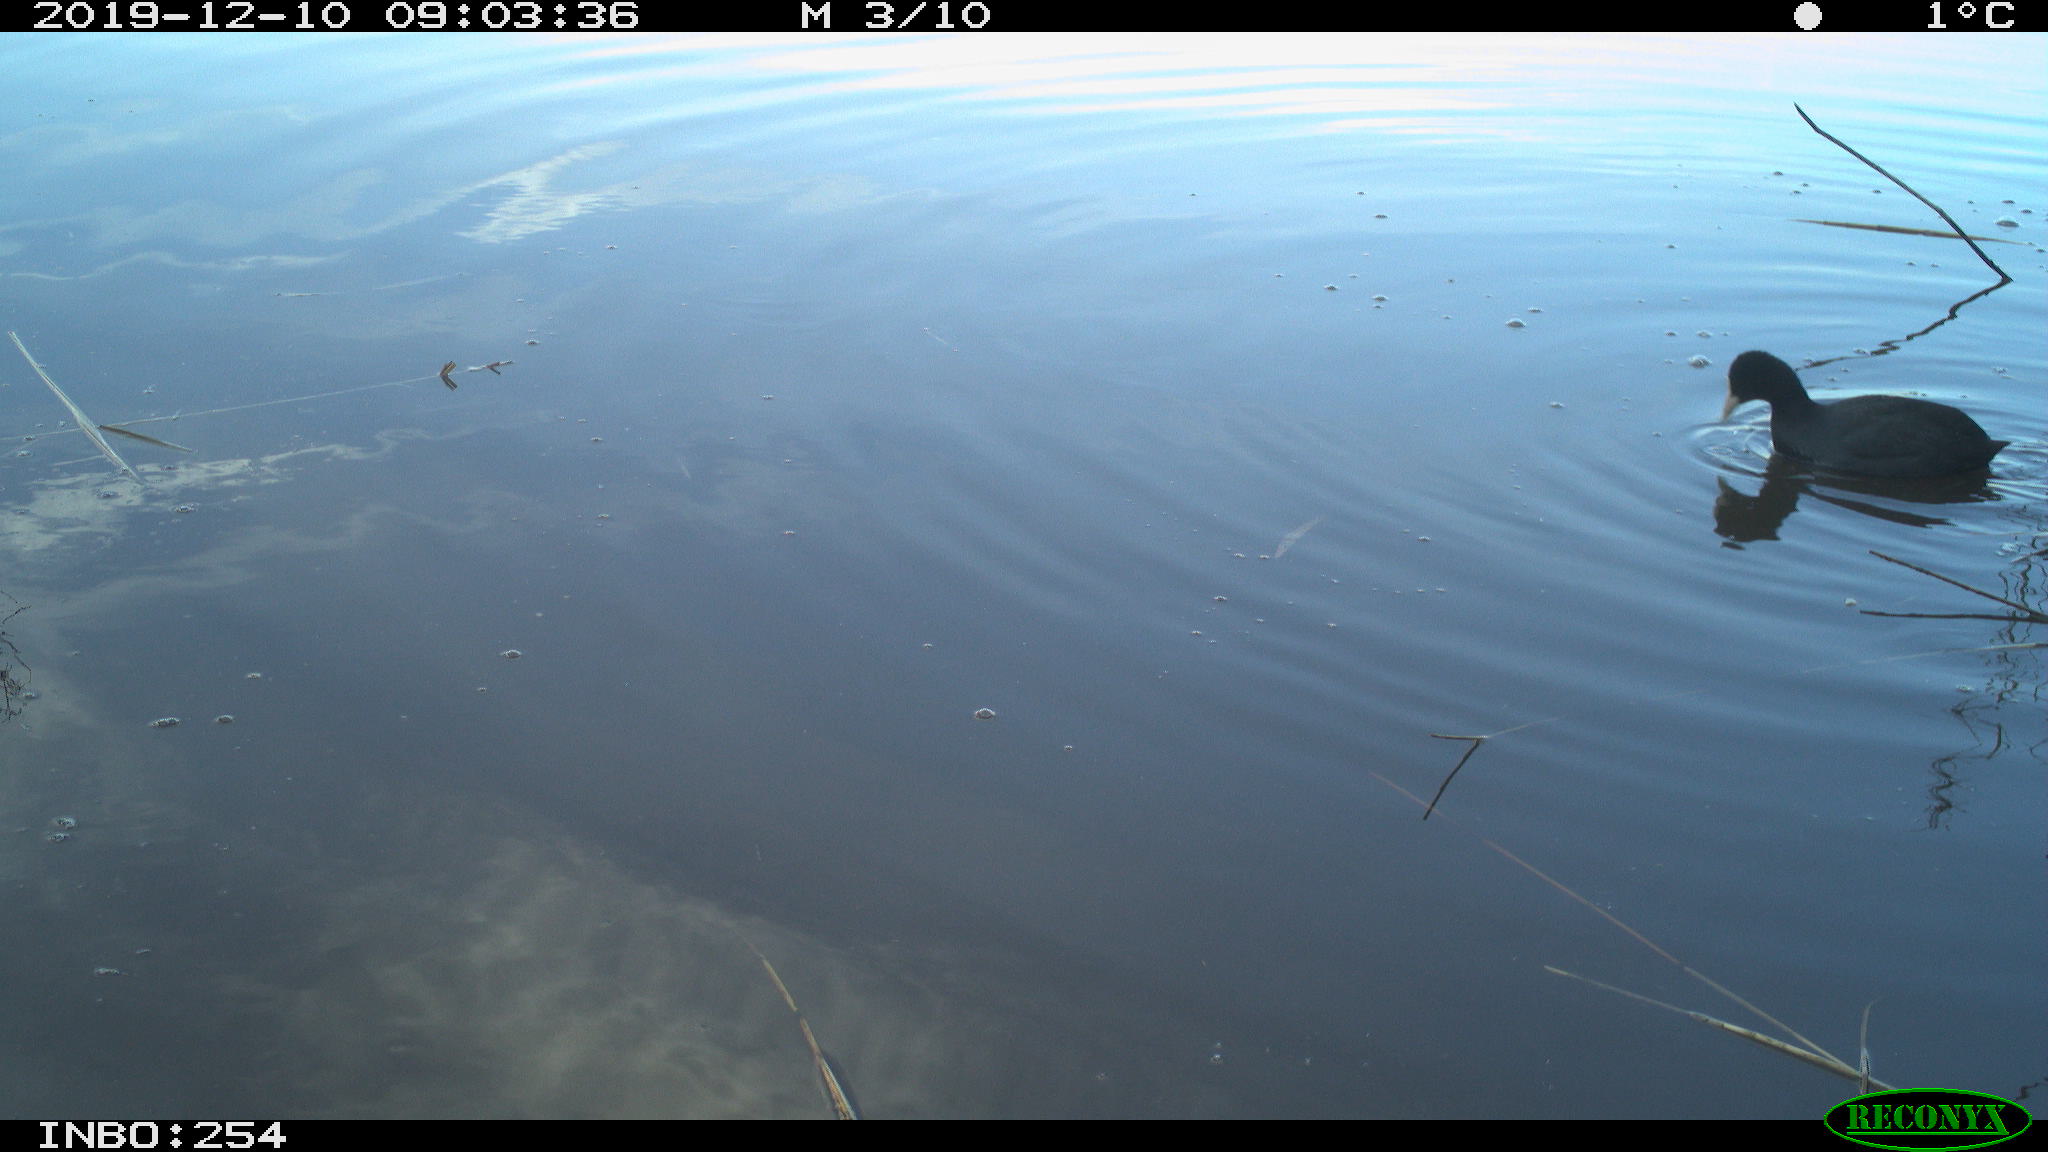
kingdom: Animalia
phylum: Chordata
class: Aves
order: Gruiformes
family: Rallidae
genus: Fulica
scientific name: Fulica atra
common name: Eurasian coot
